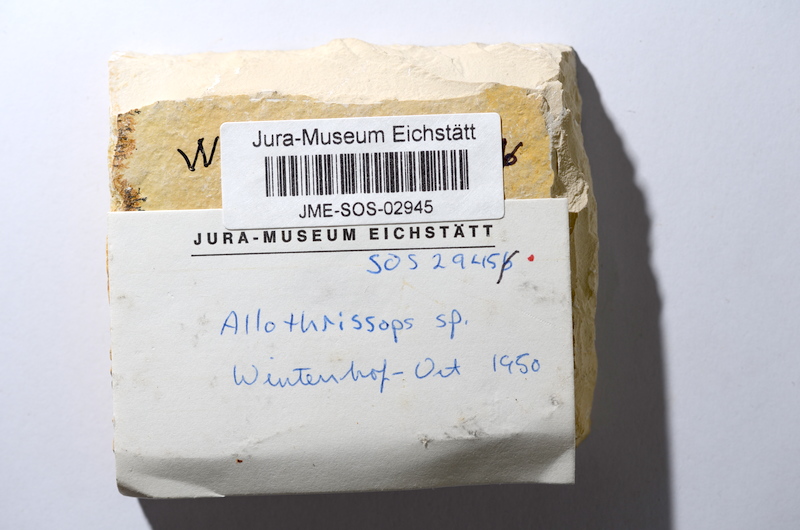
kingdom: Animalia
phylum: Chordata
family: Allothrissopidae
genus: Allothrissops
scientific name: Allothrissops mesogaster
